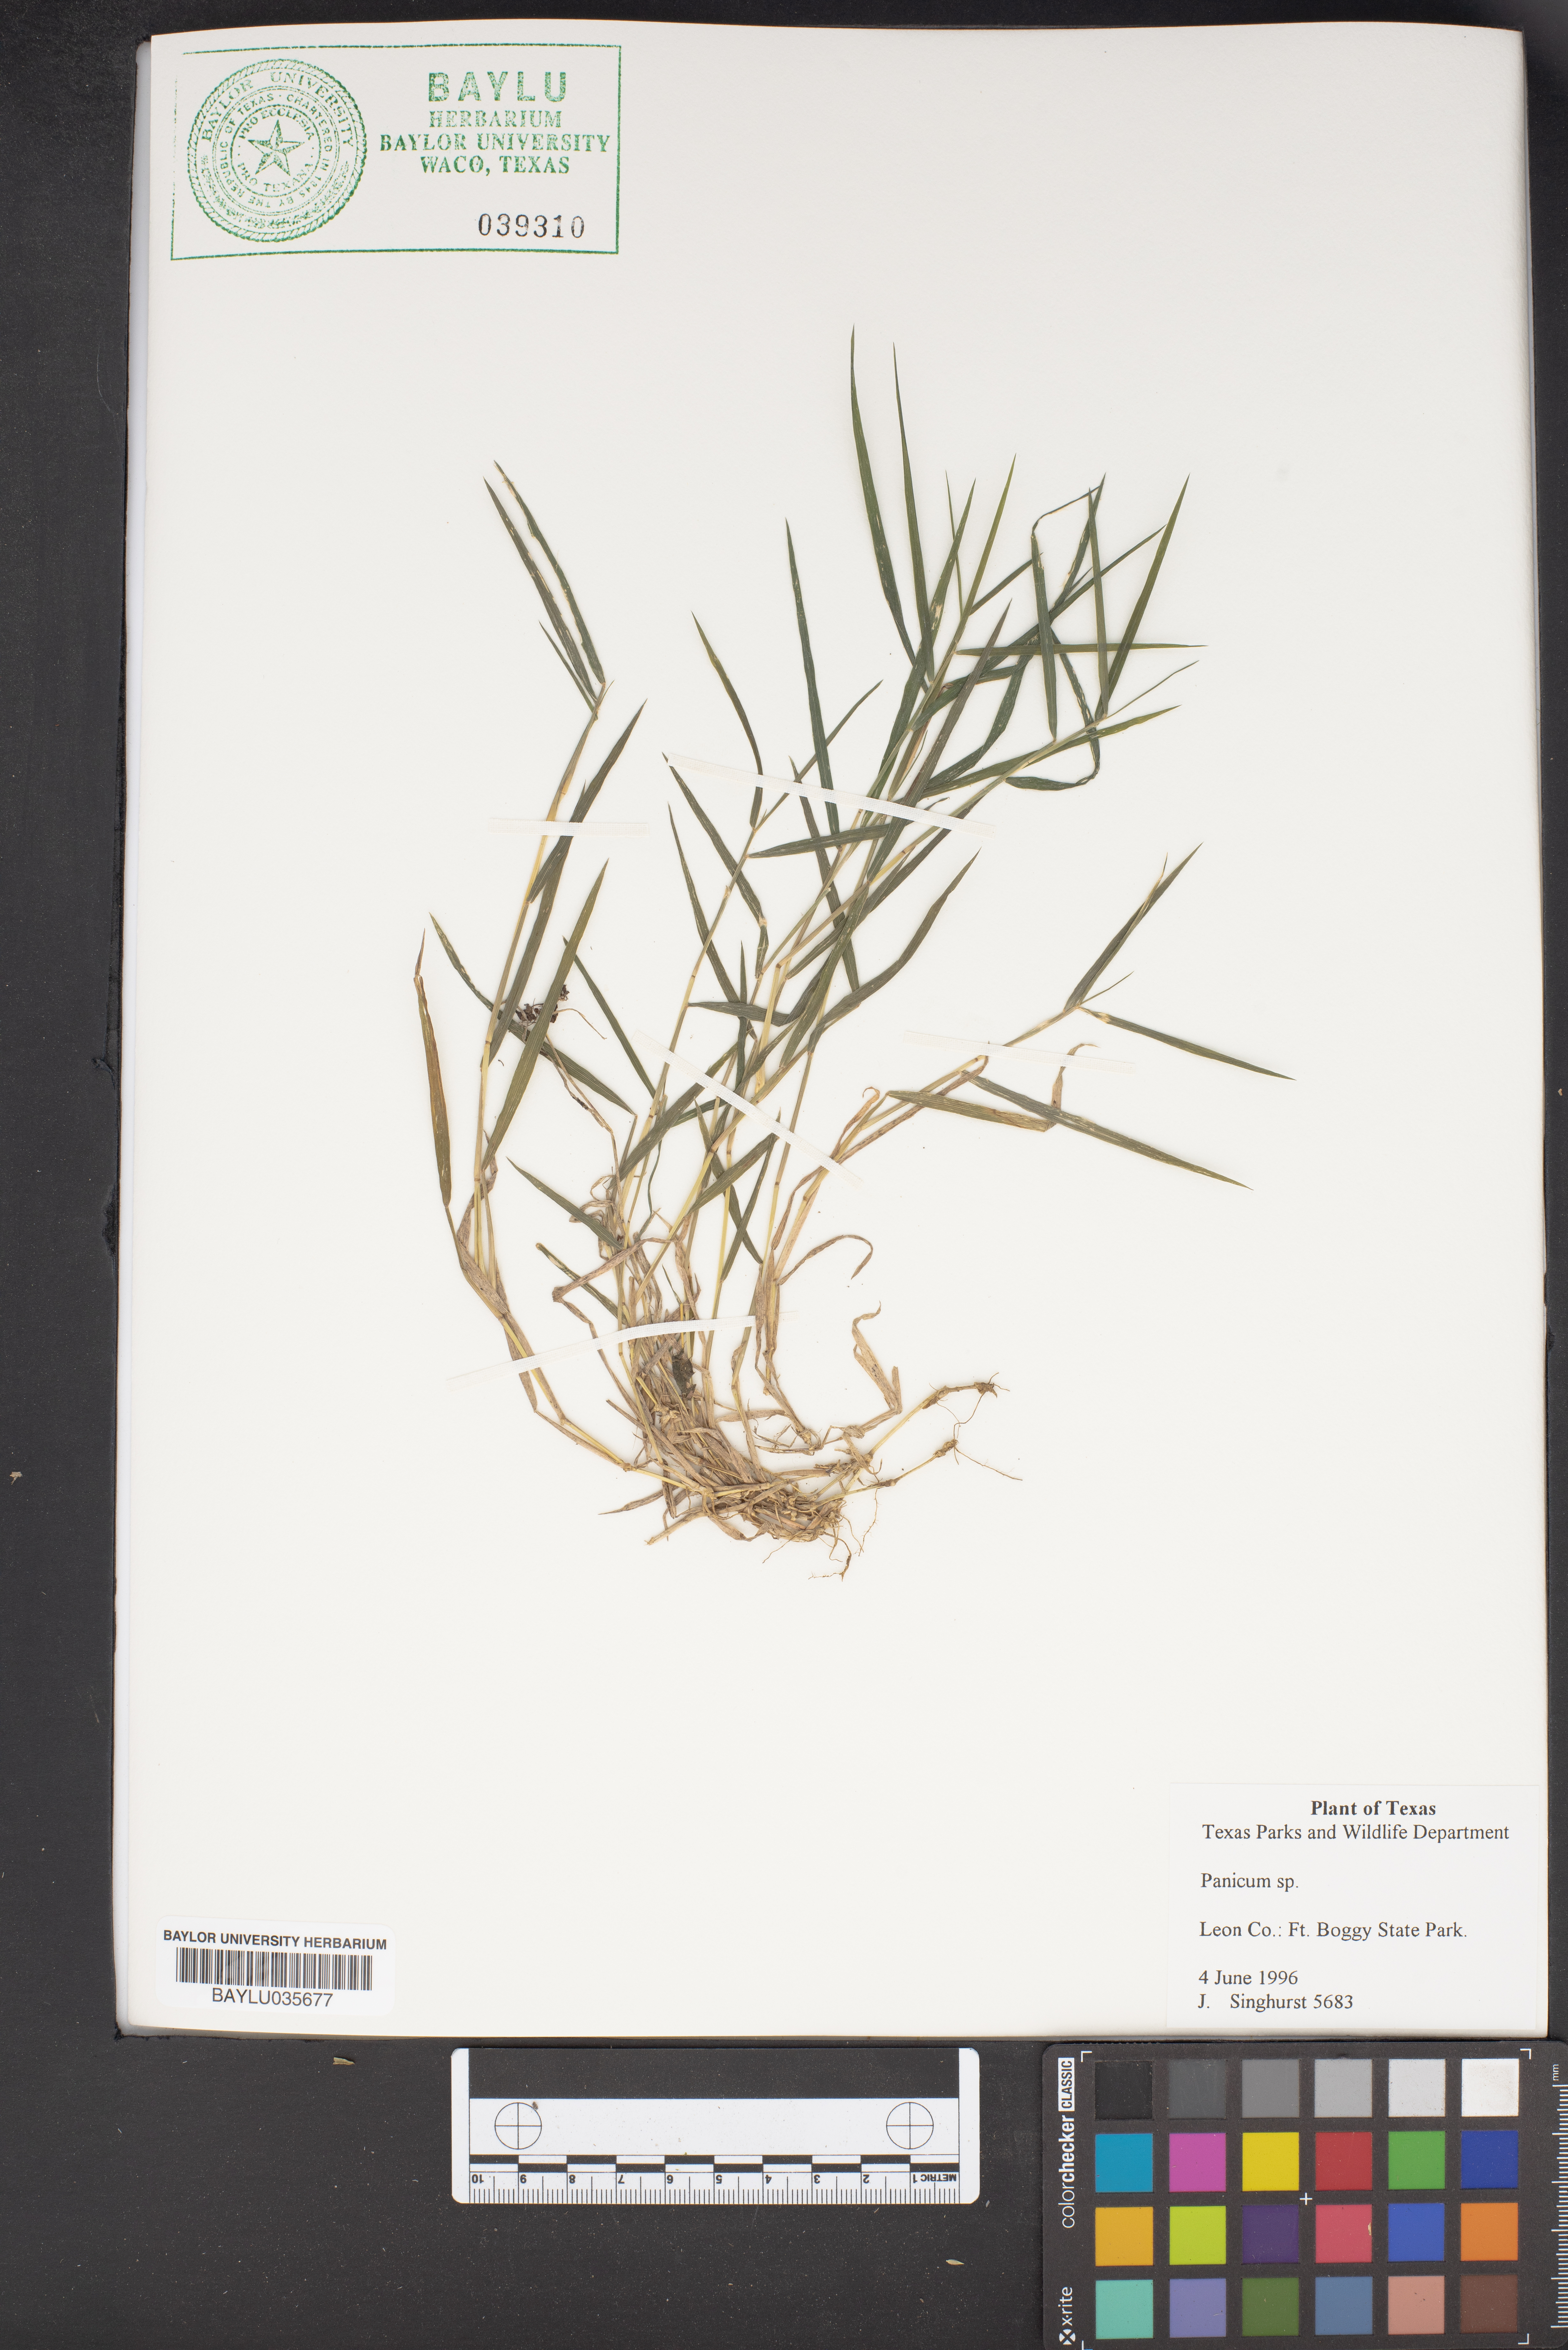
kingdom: Plantae
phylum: Tracheophyta
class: Liliopsida
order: Poales
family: Poaceae
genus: Panicum
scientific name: Panicum
